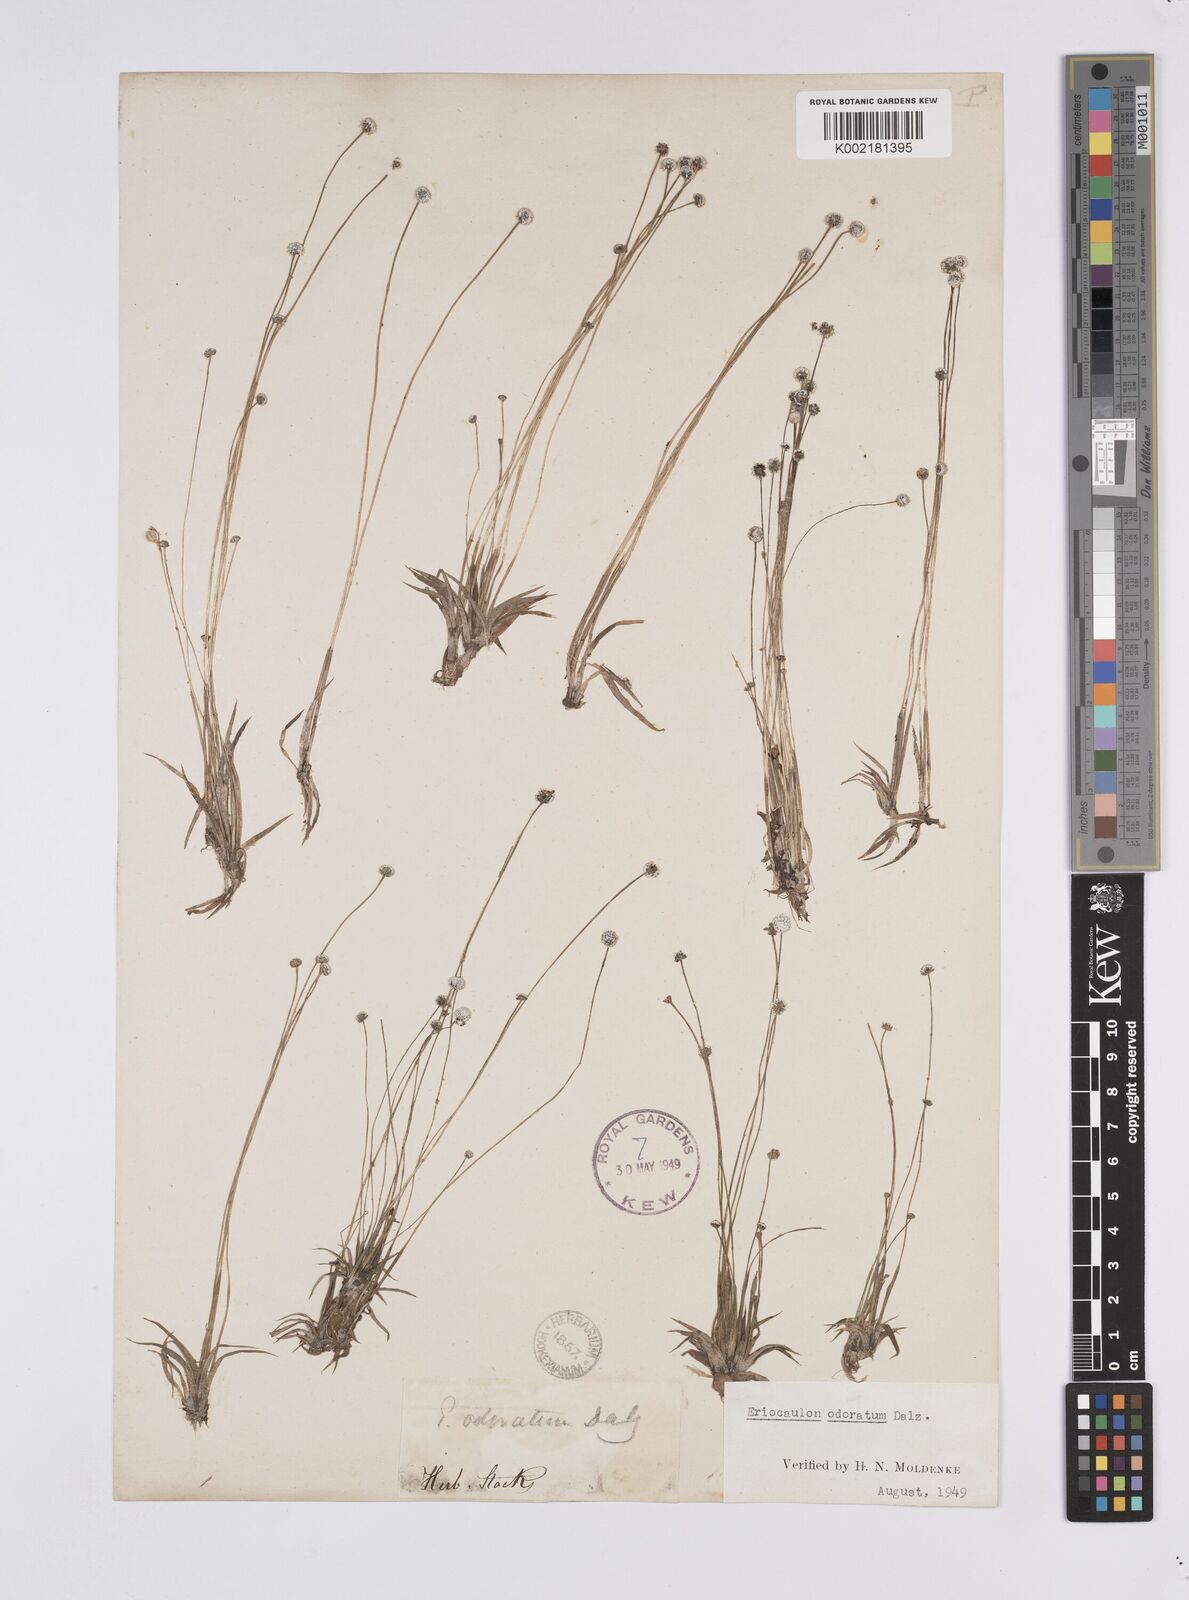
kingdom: Plantae
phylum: Tracheophyta
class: Liliopsida
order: Poales
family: Eriocaulaceae
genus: Eriocaulon
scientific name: Eriocaulon odoratum
